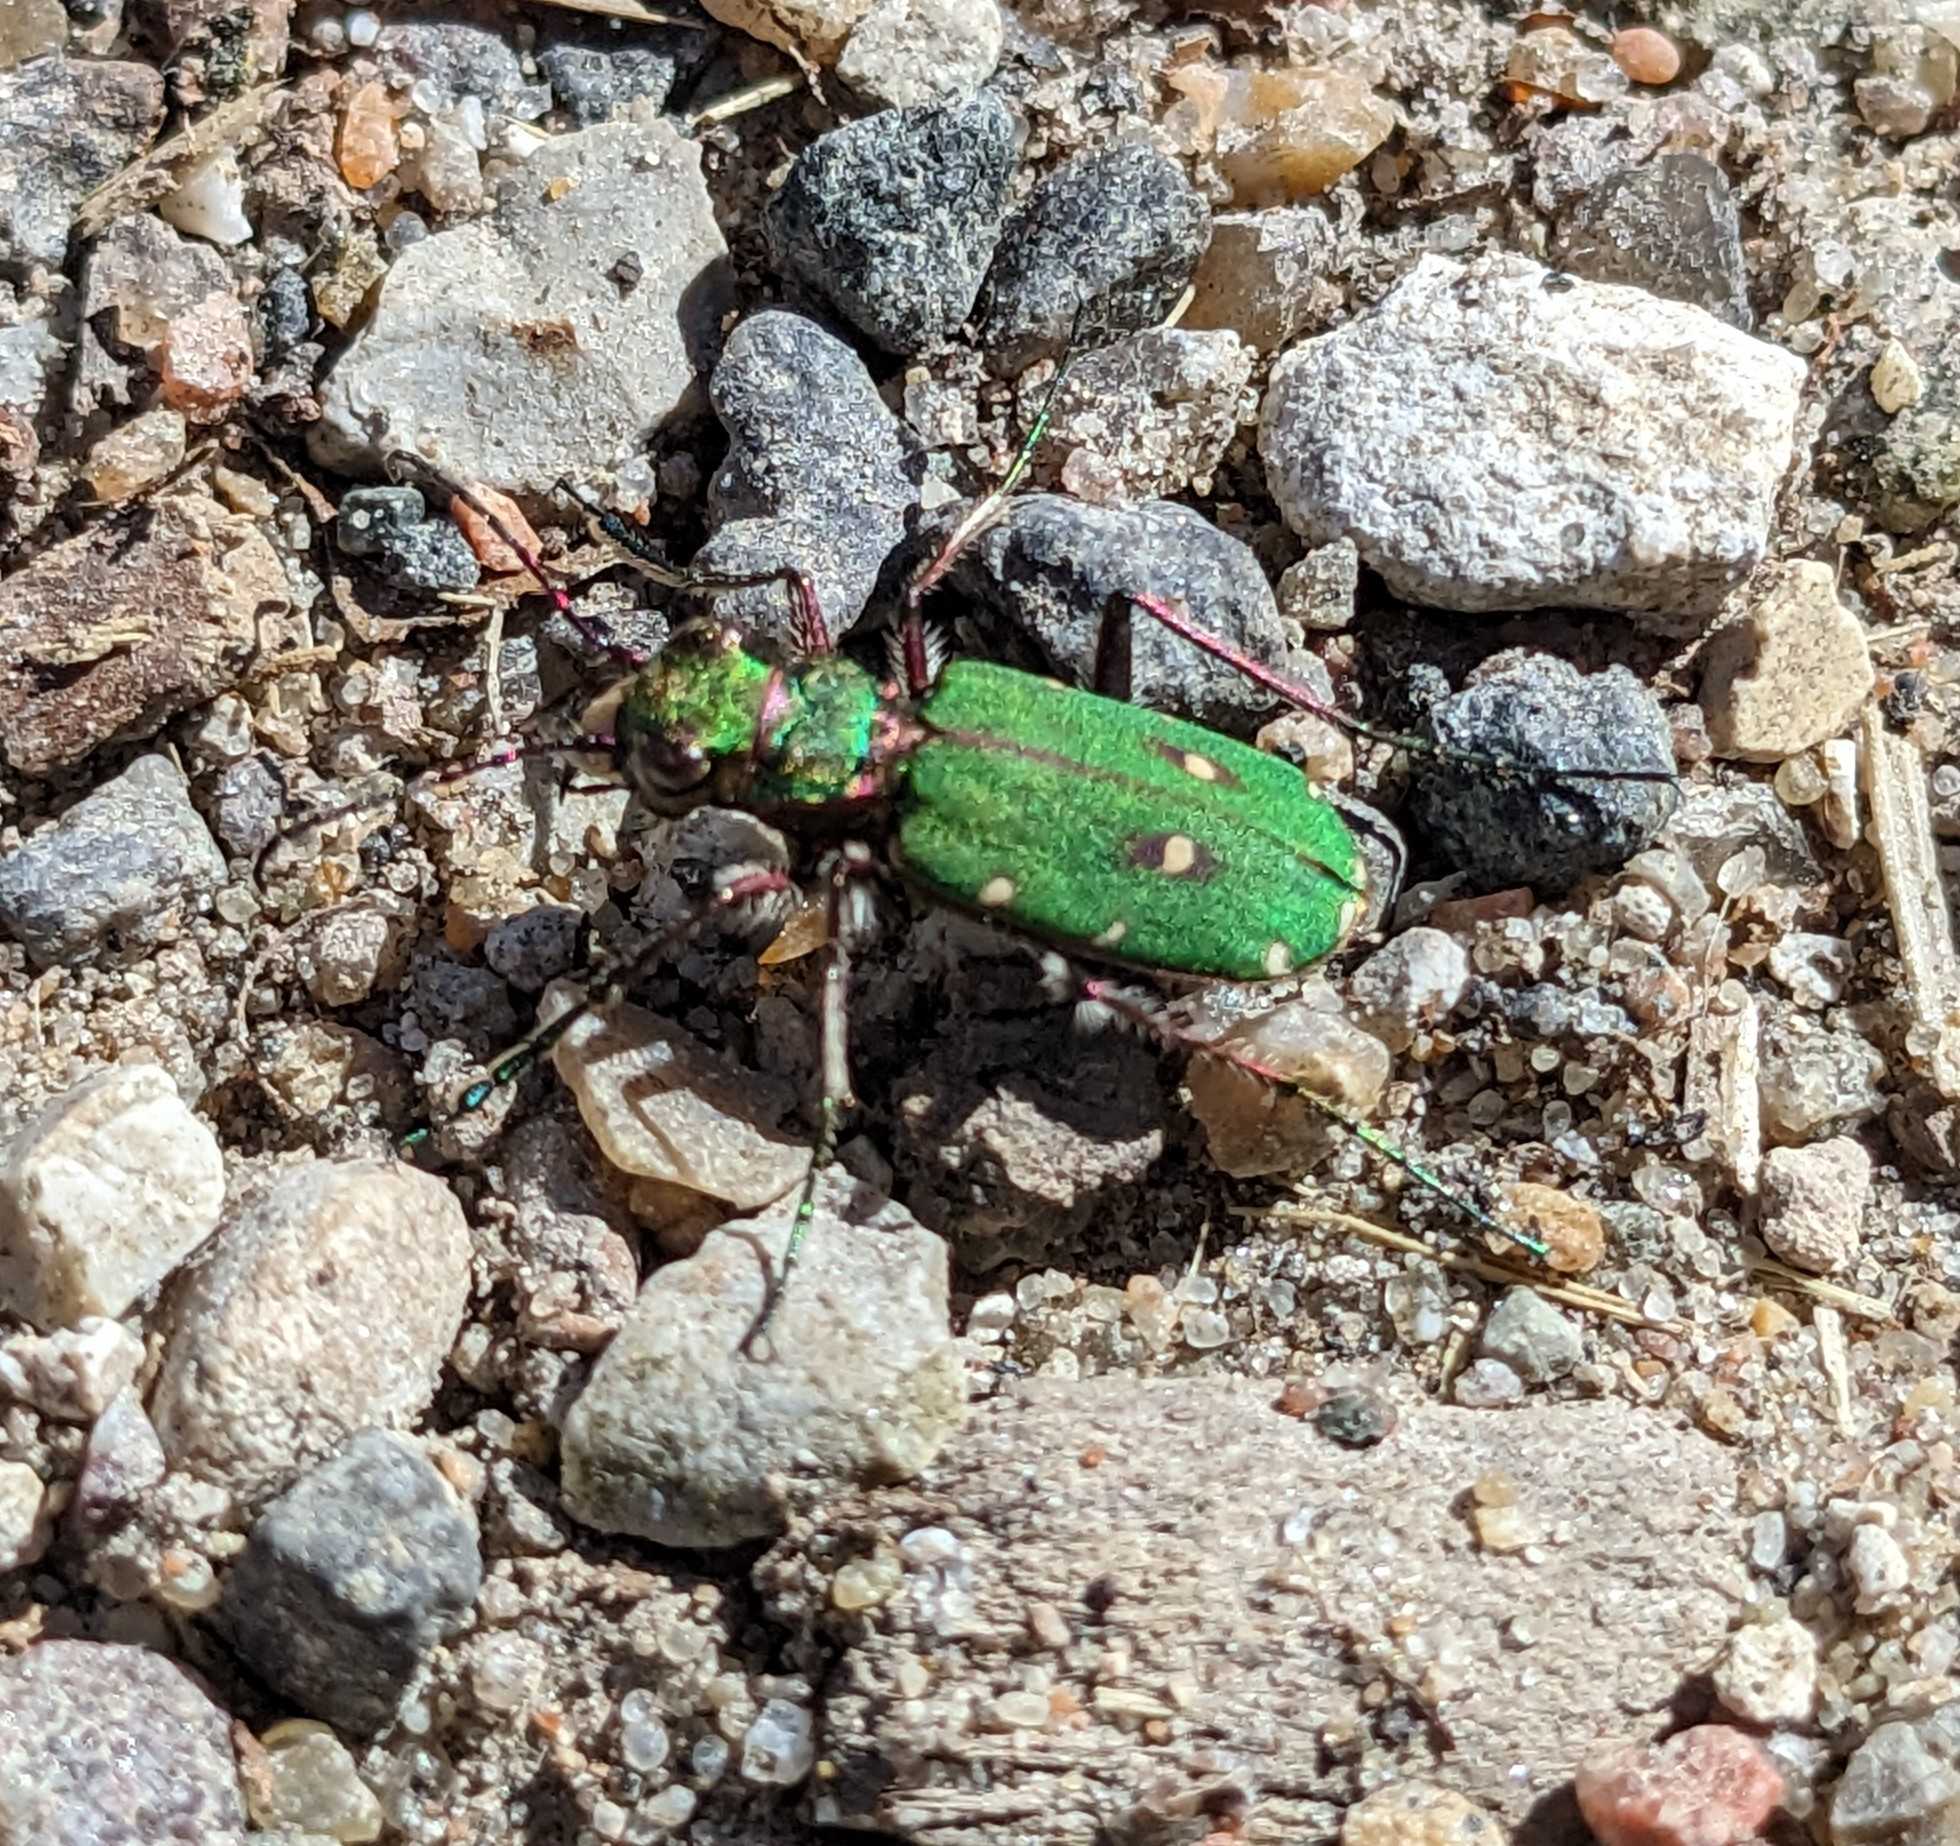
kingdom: Animalia
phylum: Arthropoda
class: Insecta
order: Coleoptera
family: Carabidae
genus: Cicindela
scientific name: Cicindela campestris
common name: Grøn sandspringer
